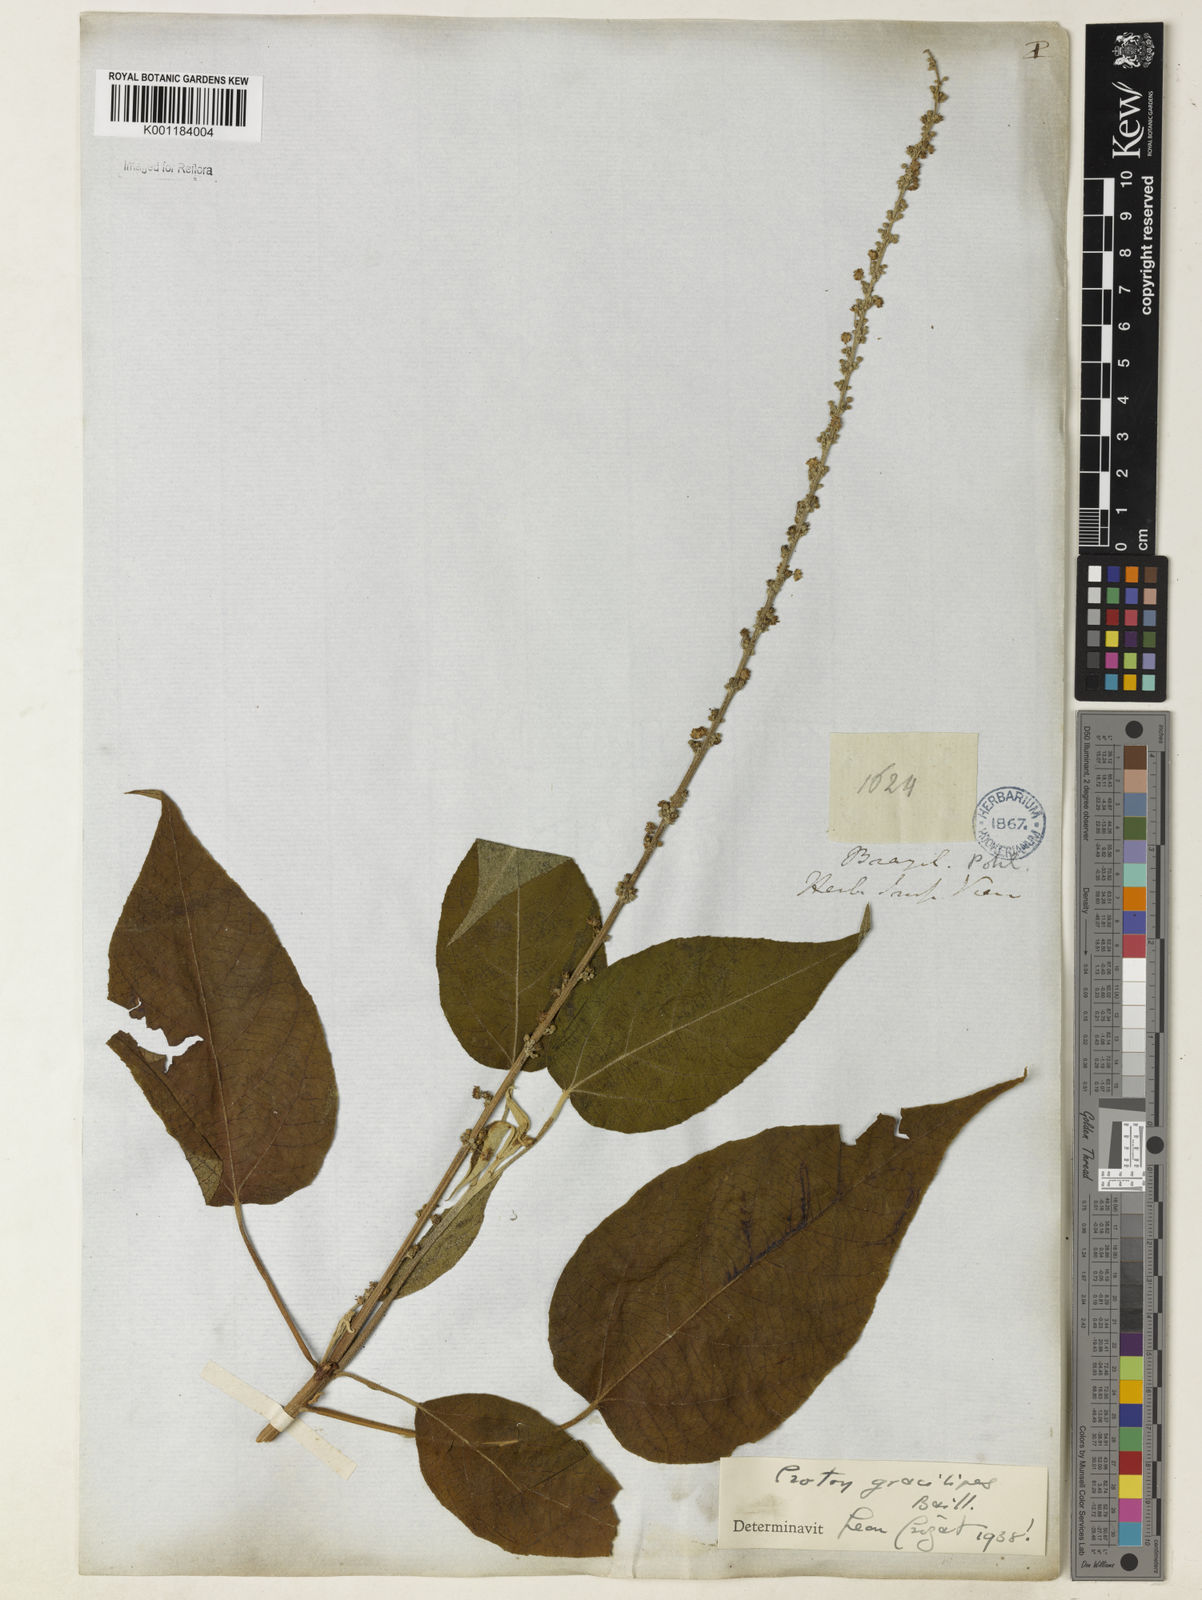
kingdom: Plantae
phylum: Tracheophyta
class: Magnoliopsida
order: Malpighiales
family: Euphorbiaceae
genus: Croton
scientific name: Croton gracilipes
